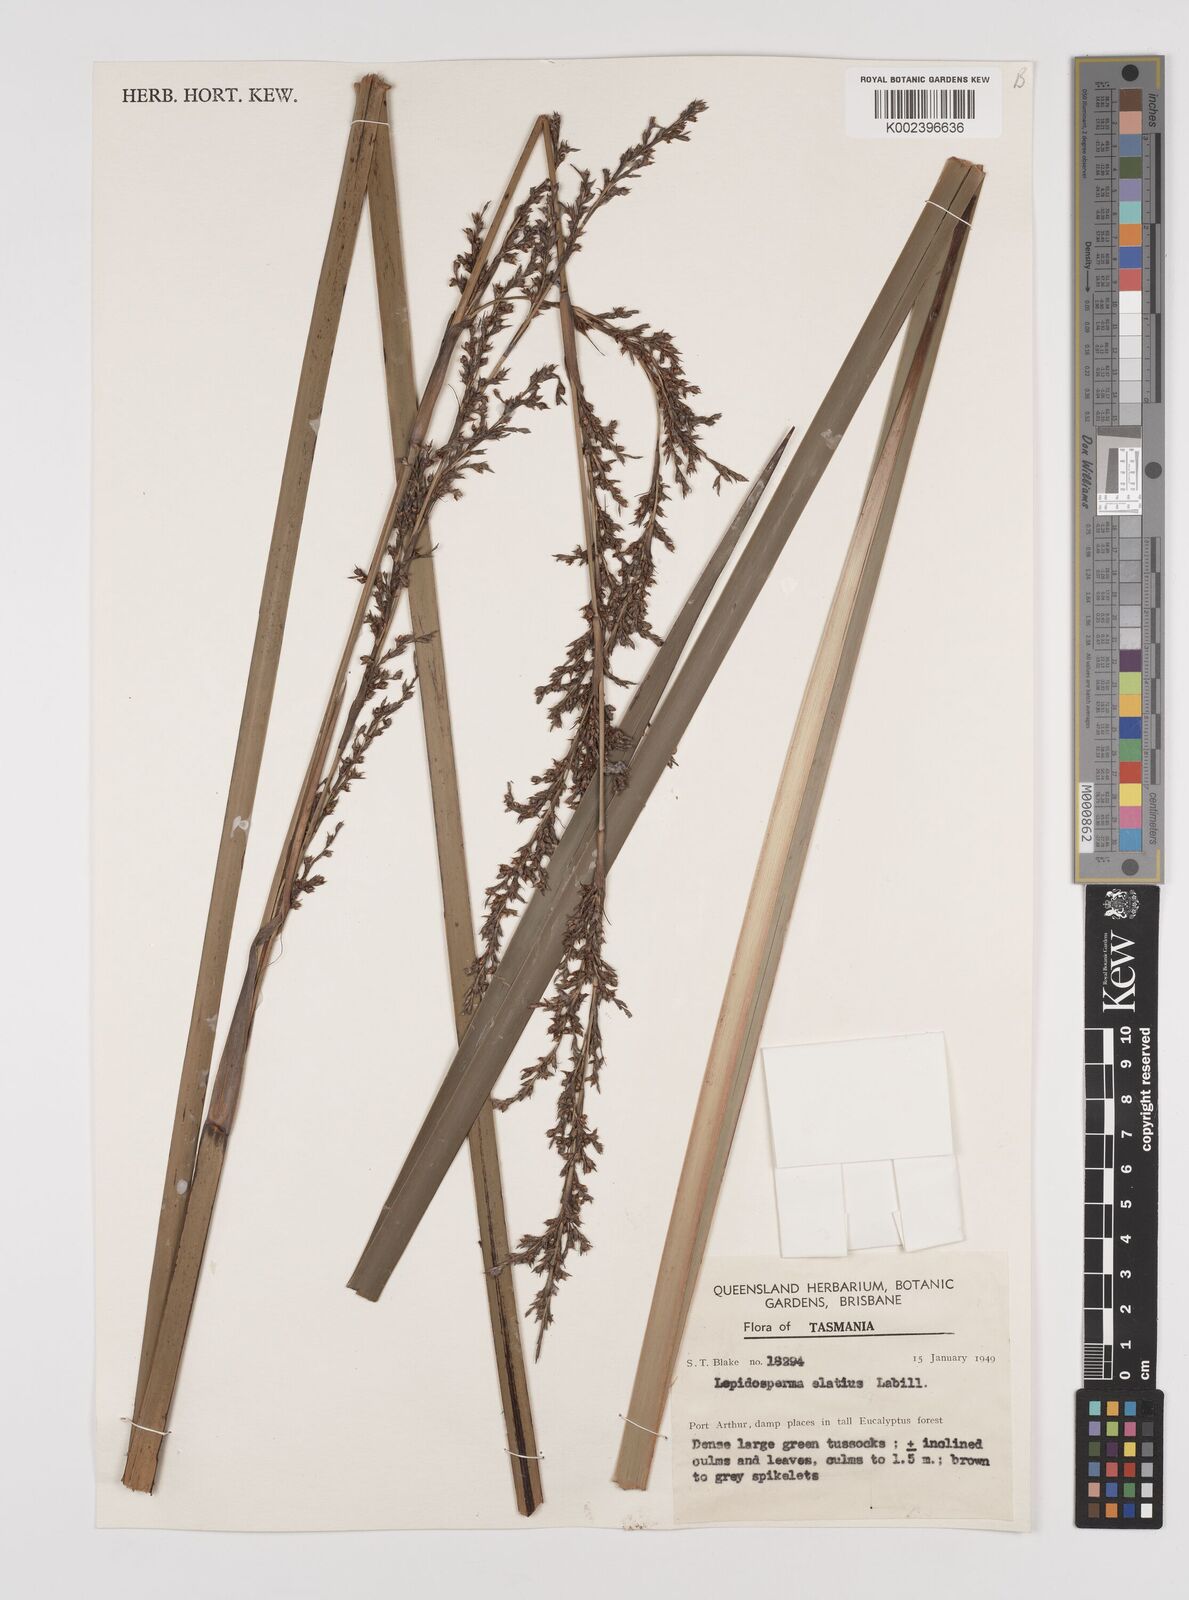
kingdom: Plantae
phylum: Tracheophyta
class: Liliopsida
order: Poales
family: Cyperaceae
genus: Lepidosperma
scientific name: Lepidosperma elatius
